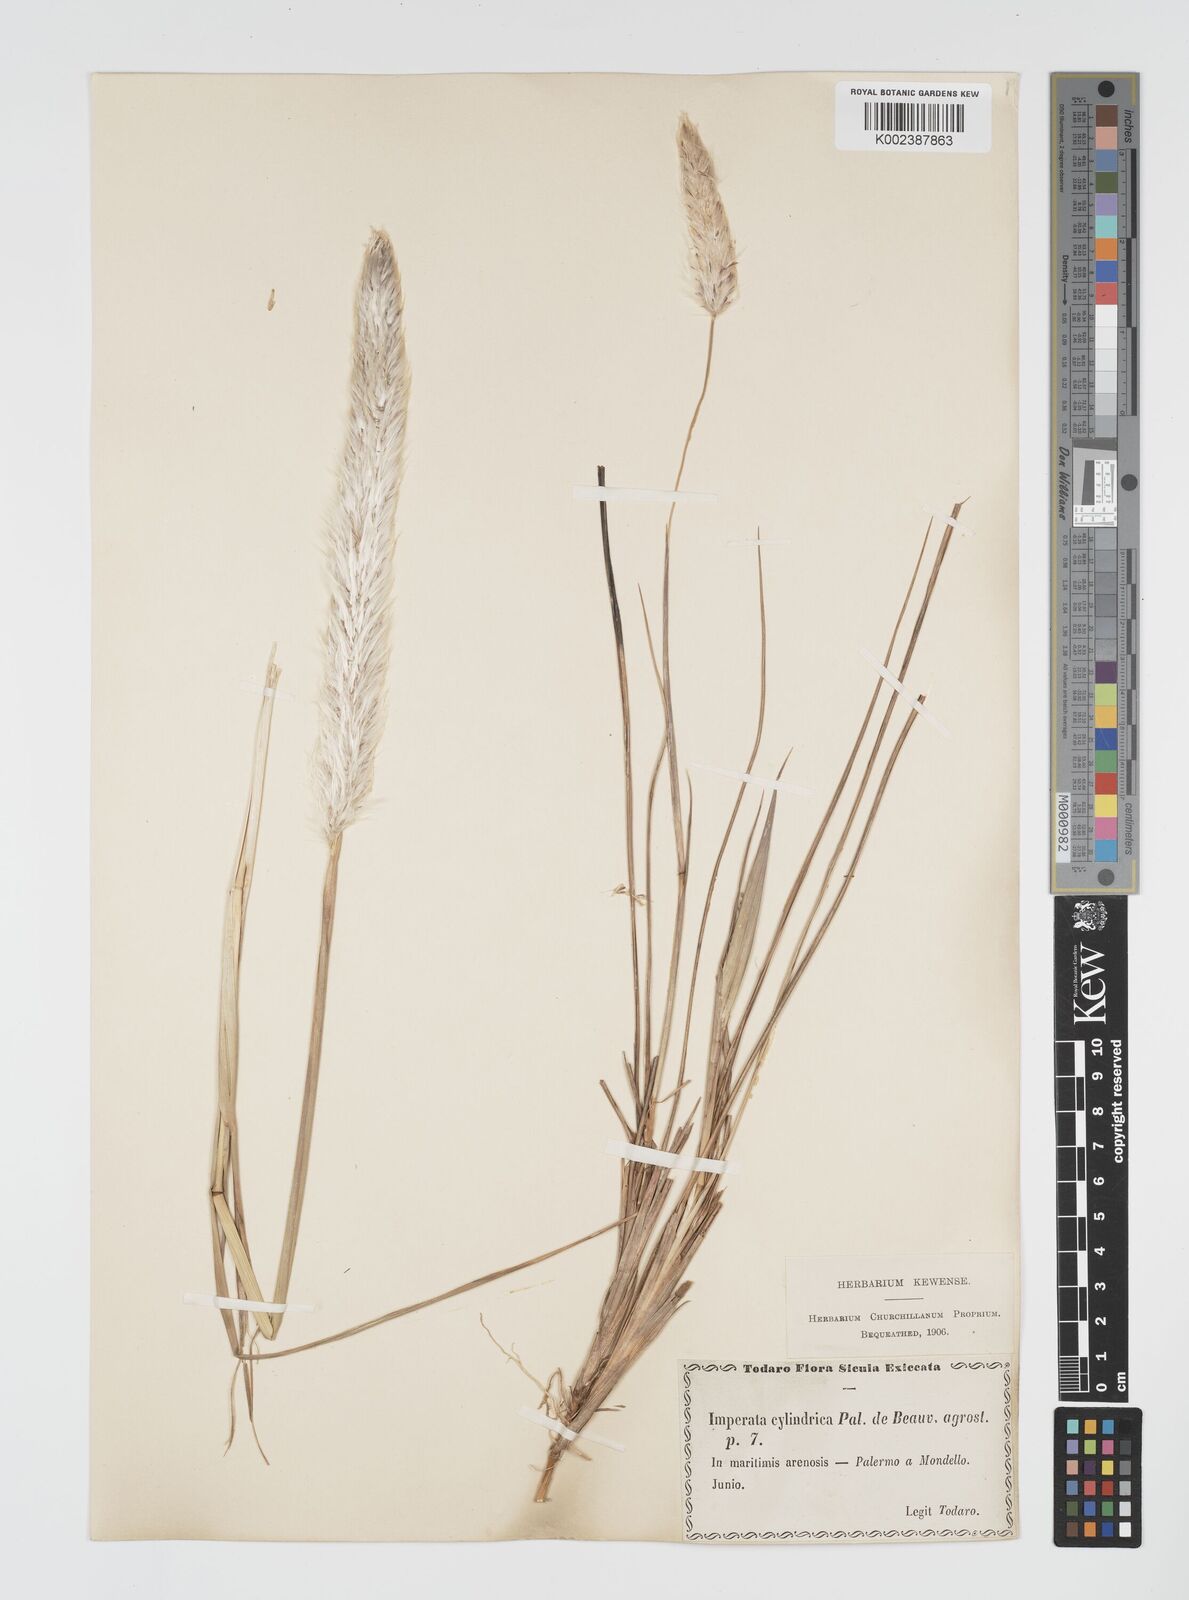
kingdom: Plantae
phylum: Tracheophyta
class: Liliopsida
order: Poales
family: Poaceae
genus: Imperata
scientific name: Imperata cylindrica
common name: Cogongrass
